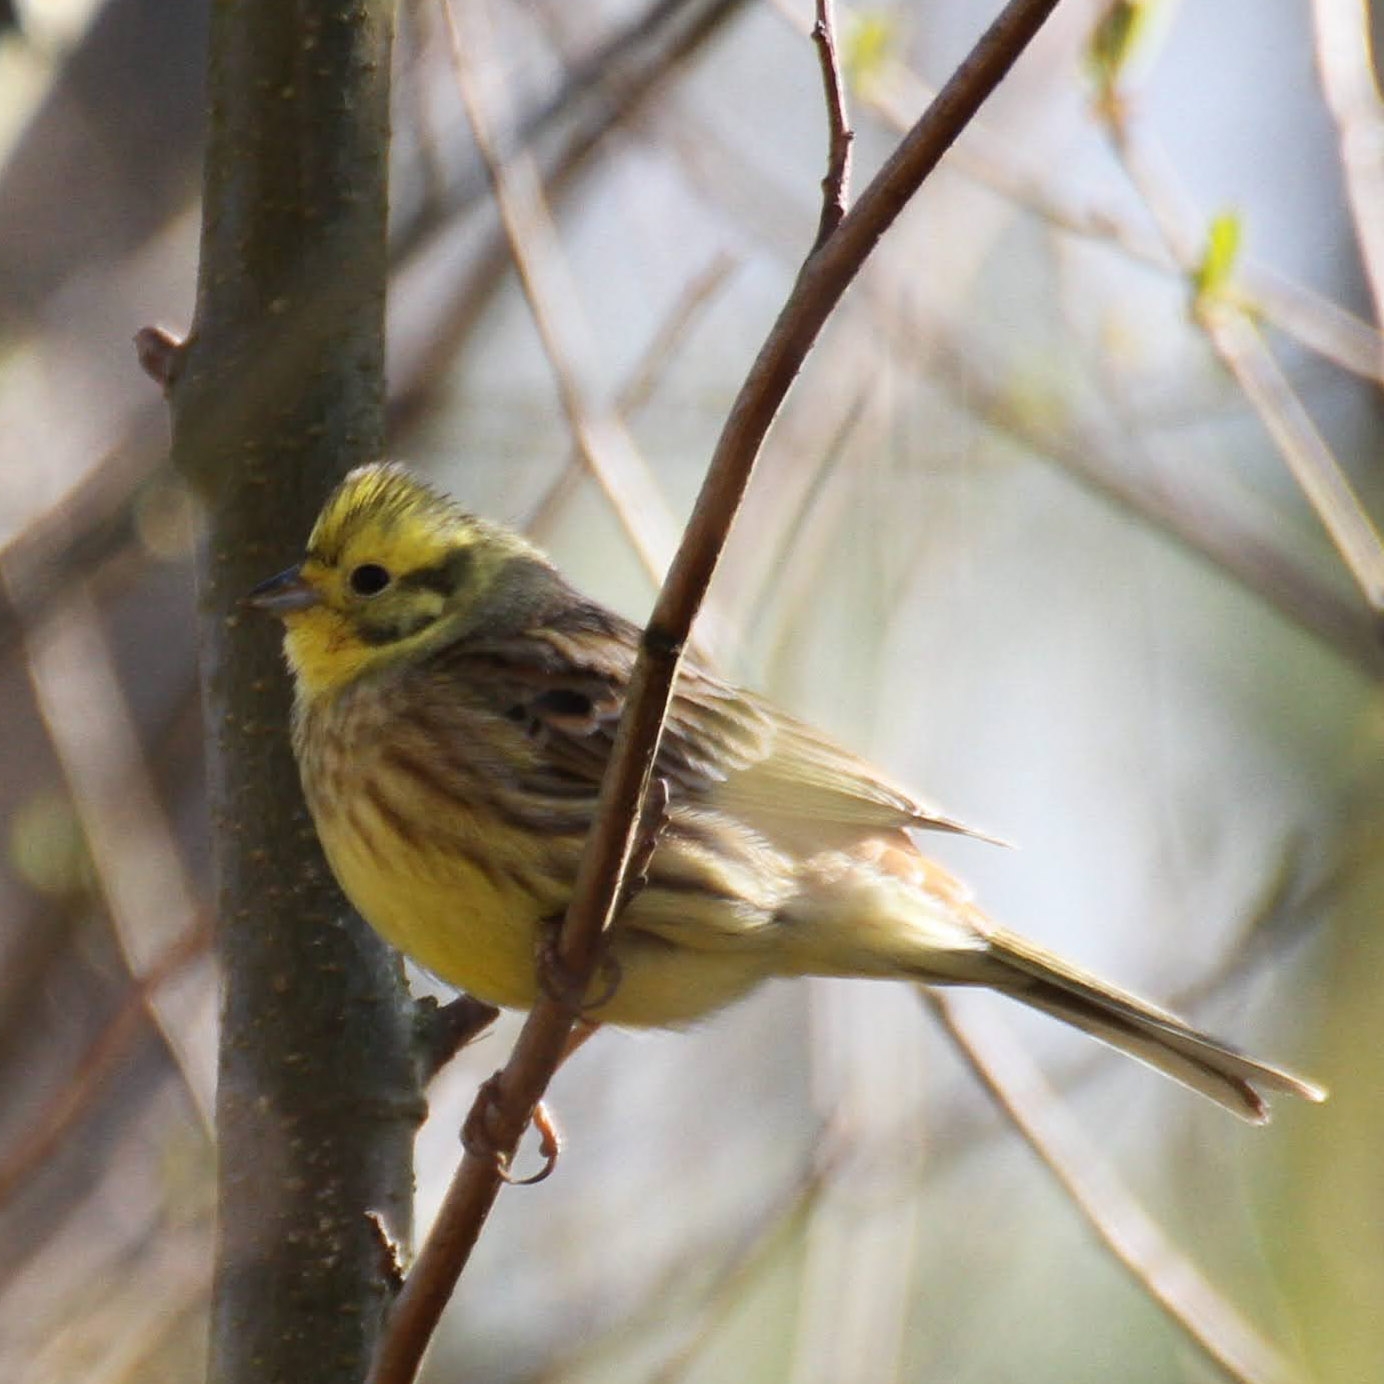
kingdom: Animalia
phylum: Chordata
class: Aves
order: Passeriformes
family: Emberizidae
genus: Emberiza
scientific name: Emberiza citrinella
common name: Gulspurv
